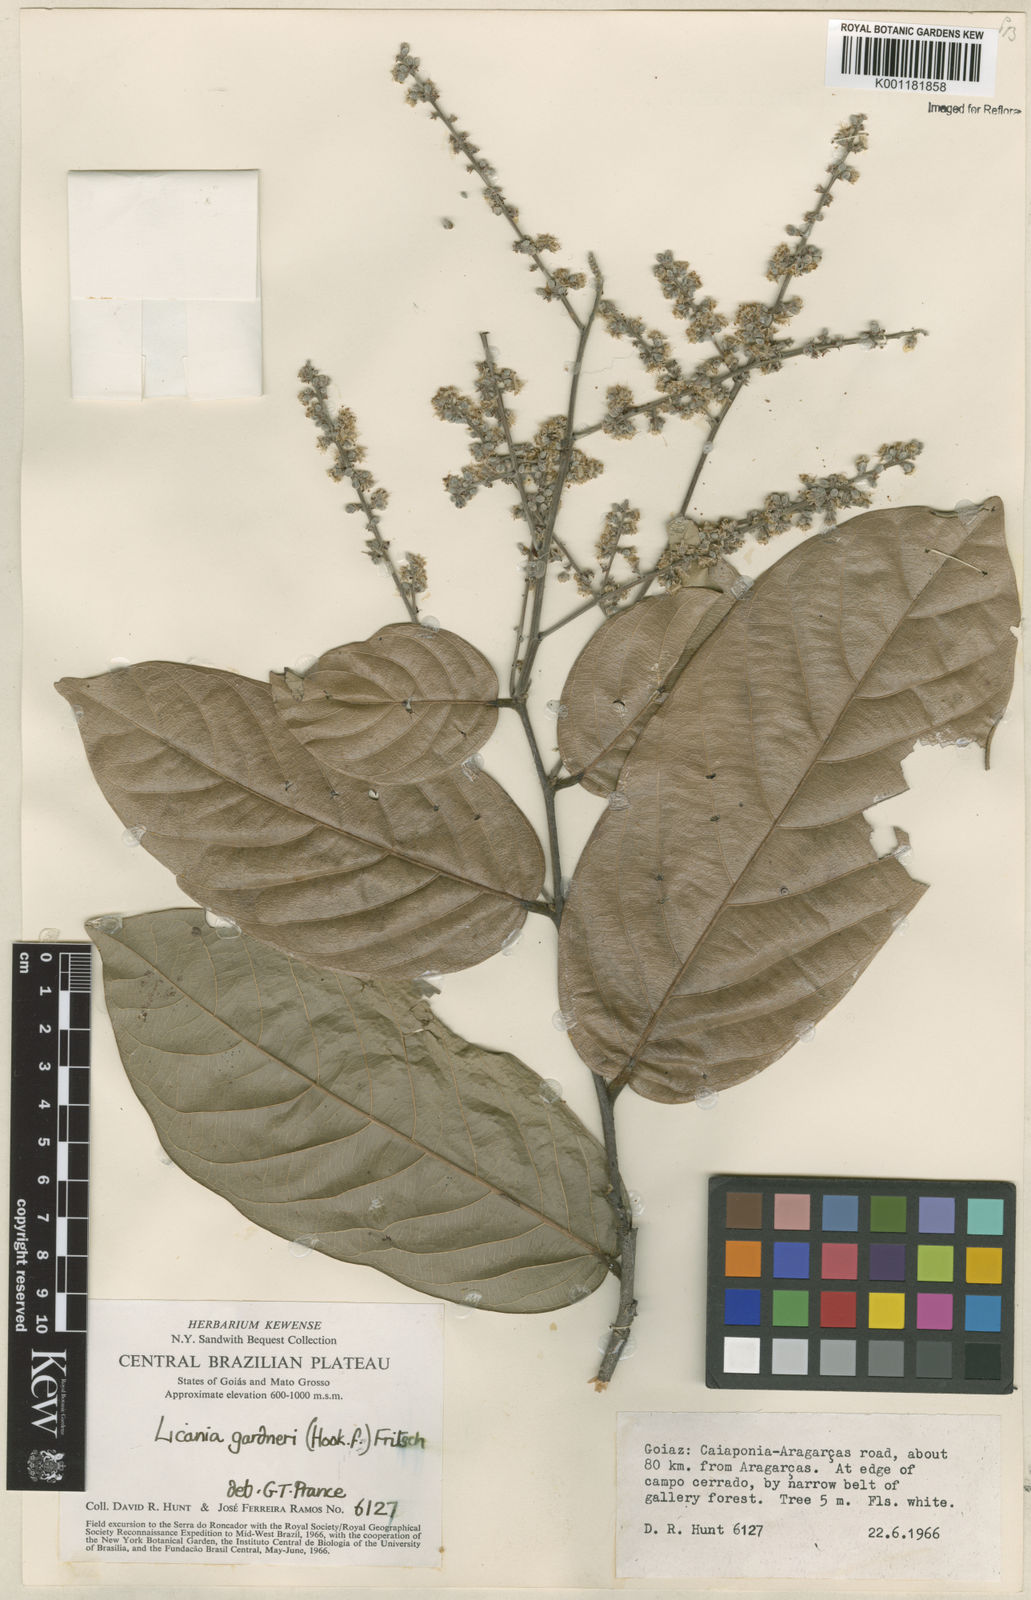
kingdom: Plantae
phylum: Tracheophyta
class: Magnoliopsida
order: Malpighiales
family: Chrysobalanaceae
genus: Leptobalanus
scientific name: Leptobalanus gardneri
